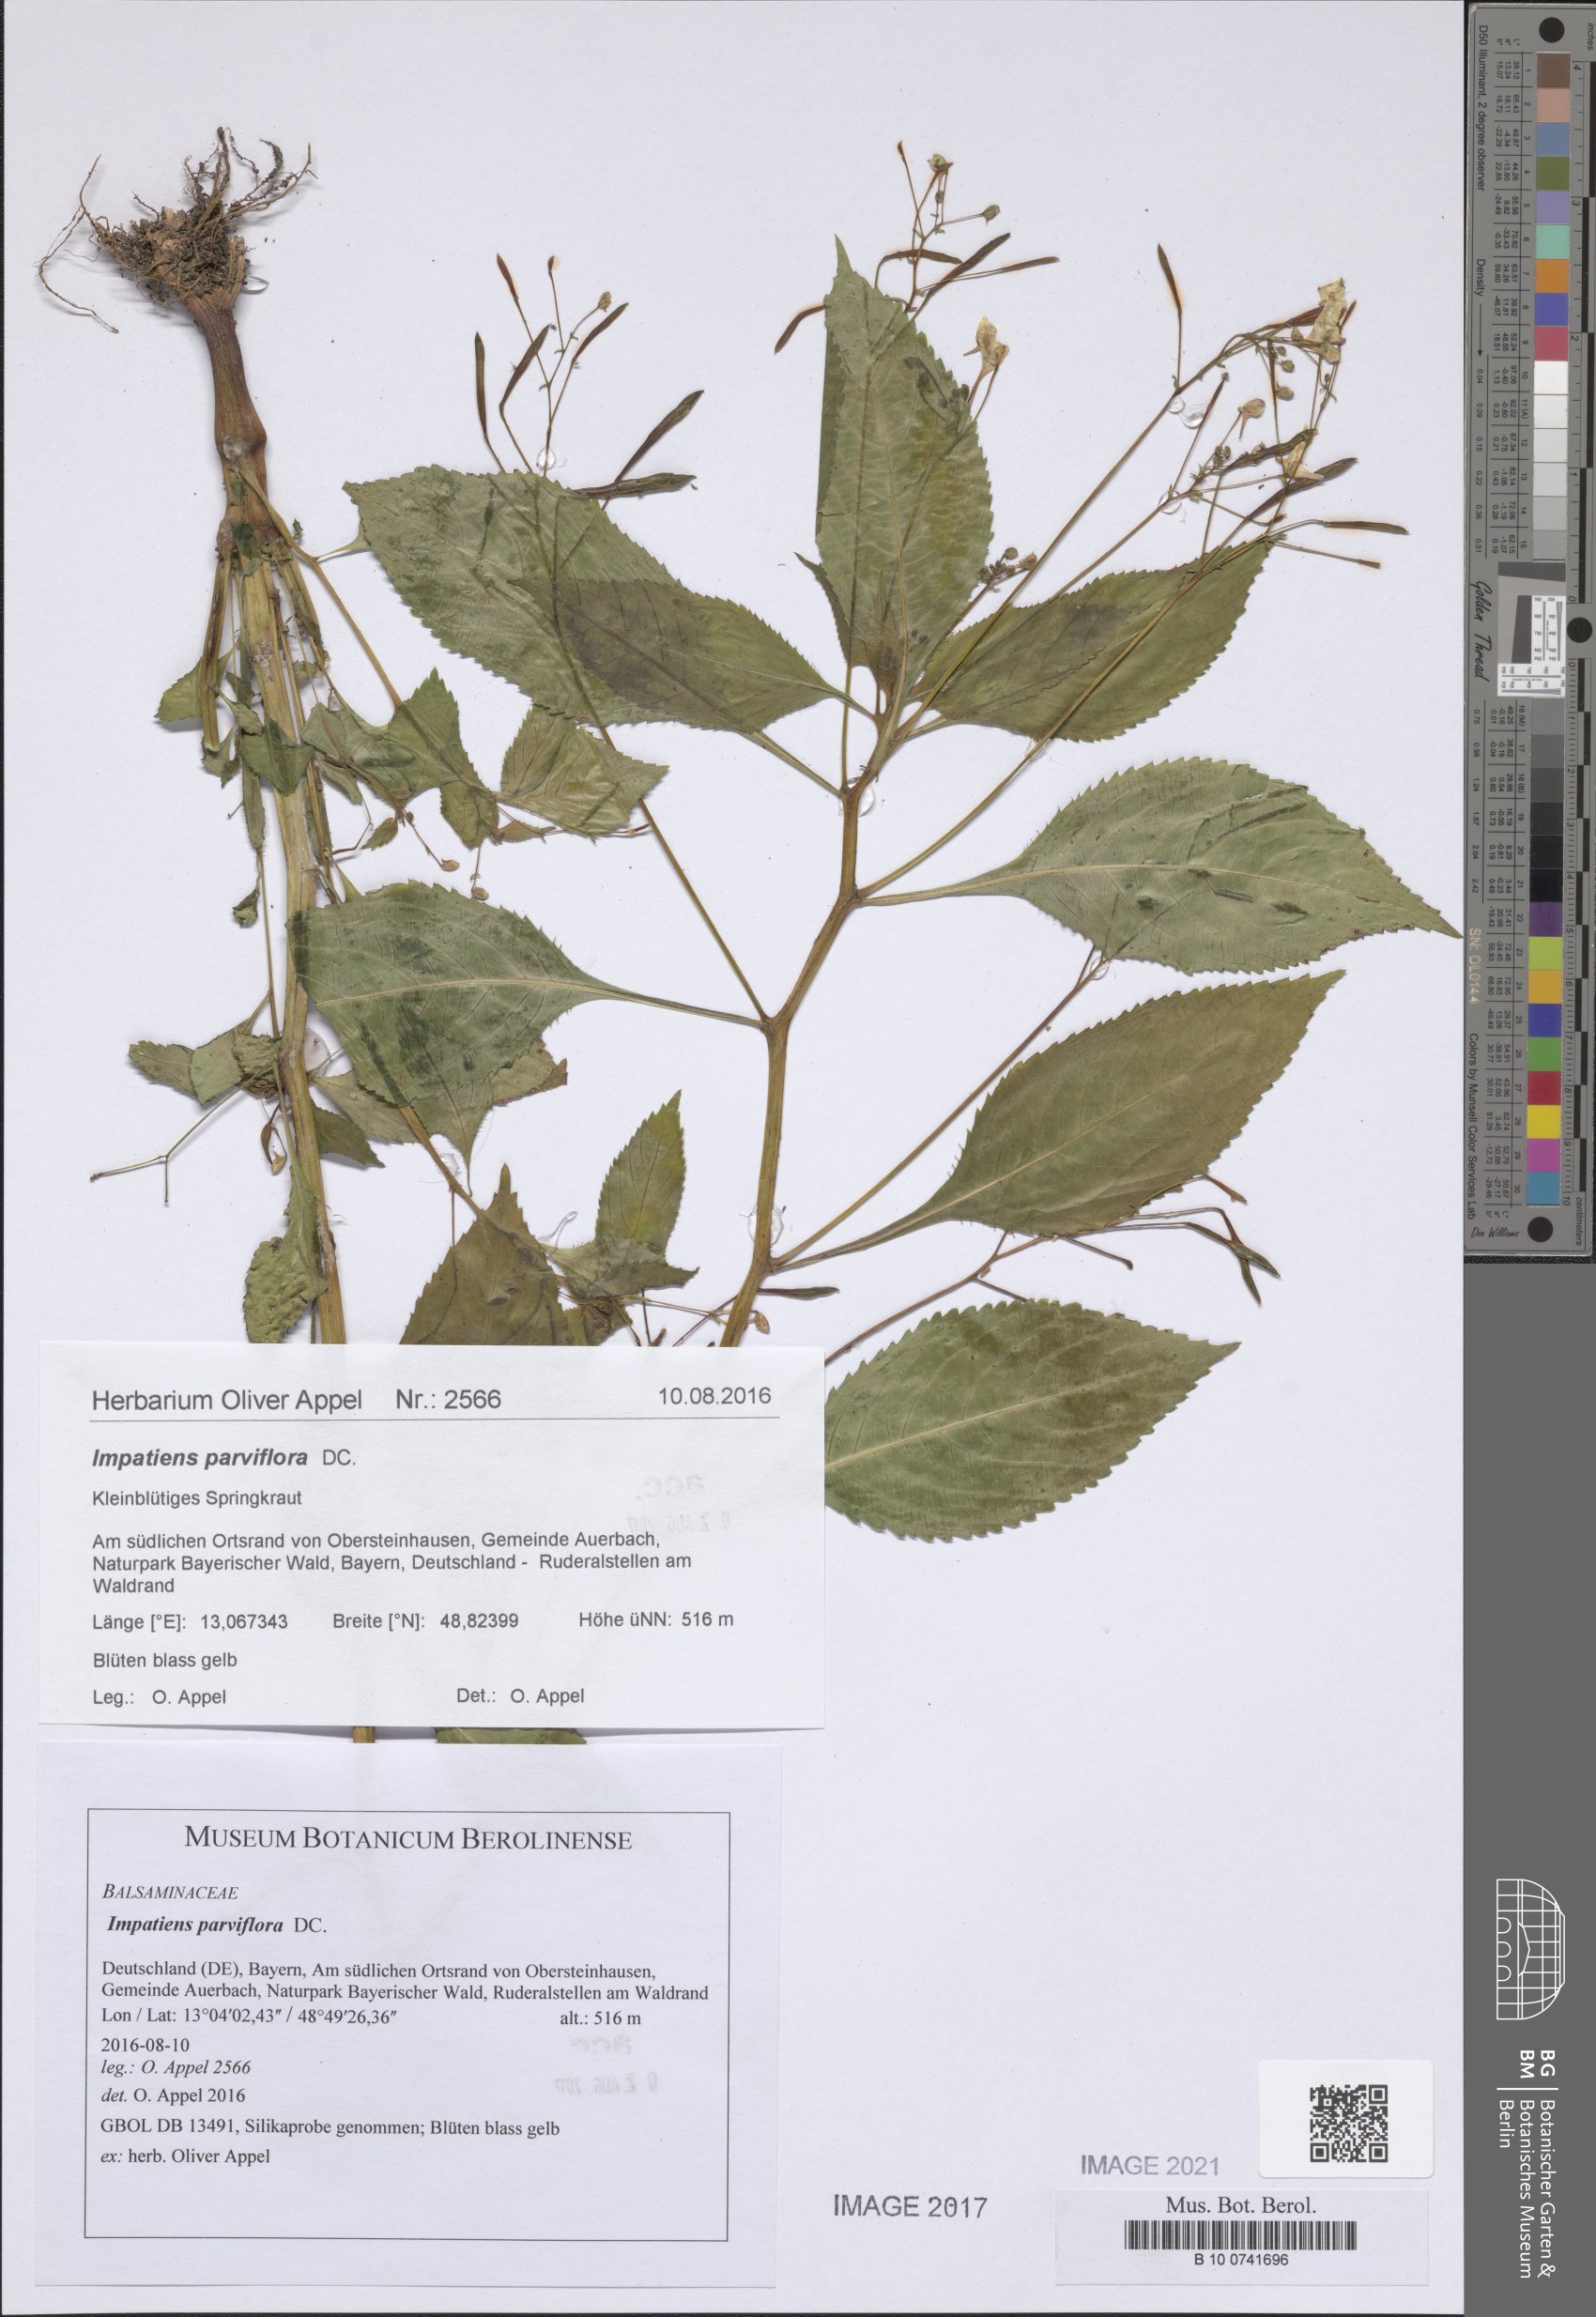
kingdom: Plantae
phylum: Tracheophyta
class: Magnoliopsida
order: Ericales
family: Balsaminaceae
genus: Impatiens
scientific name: Impatiens parviflora
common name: Small balsam
